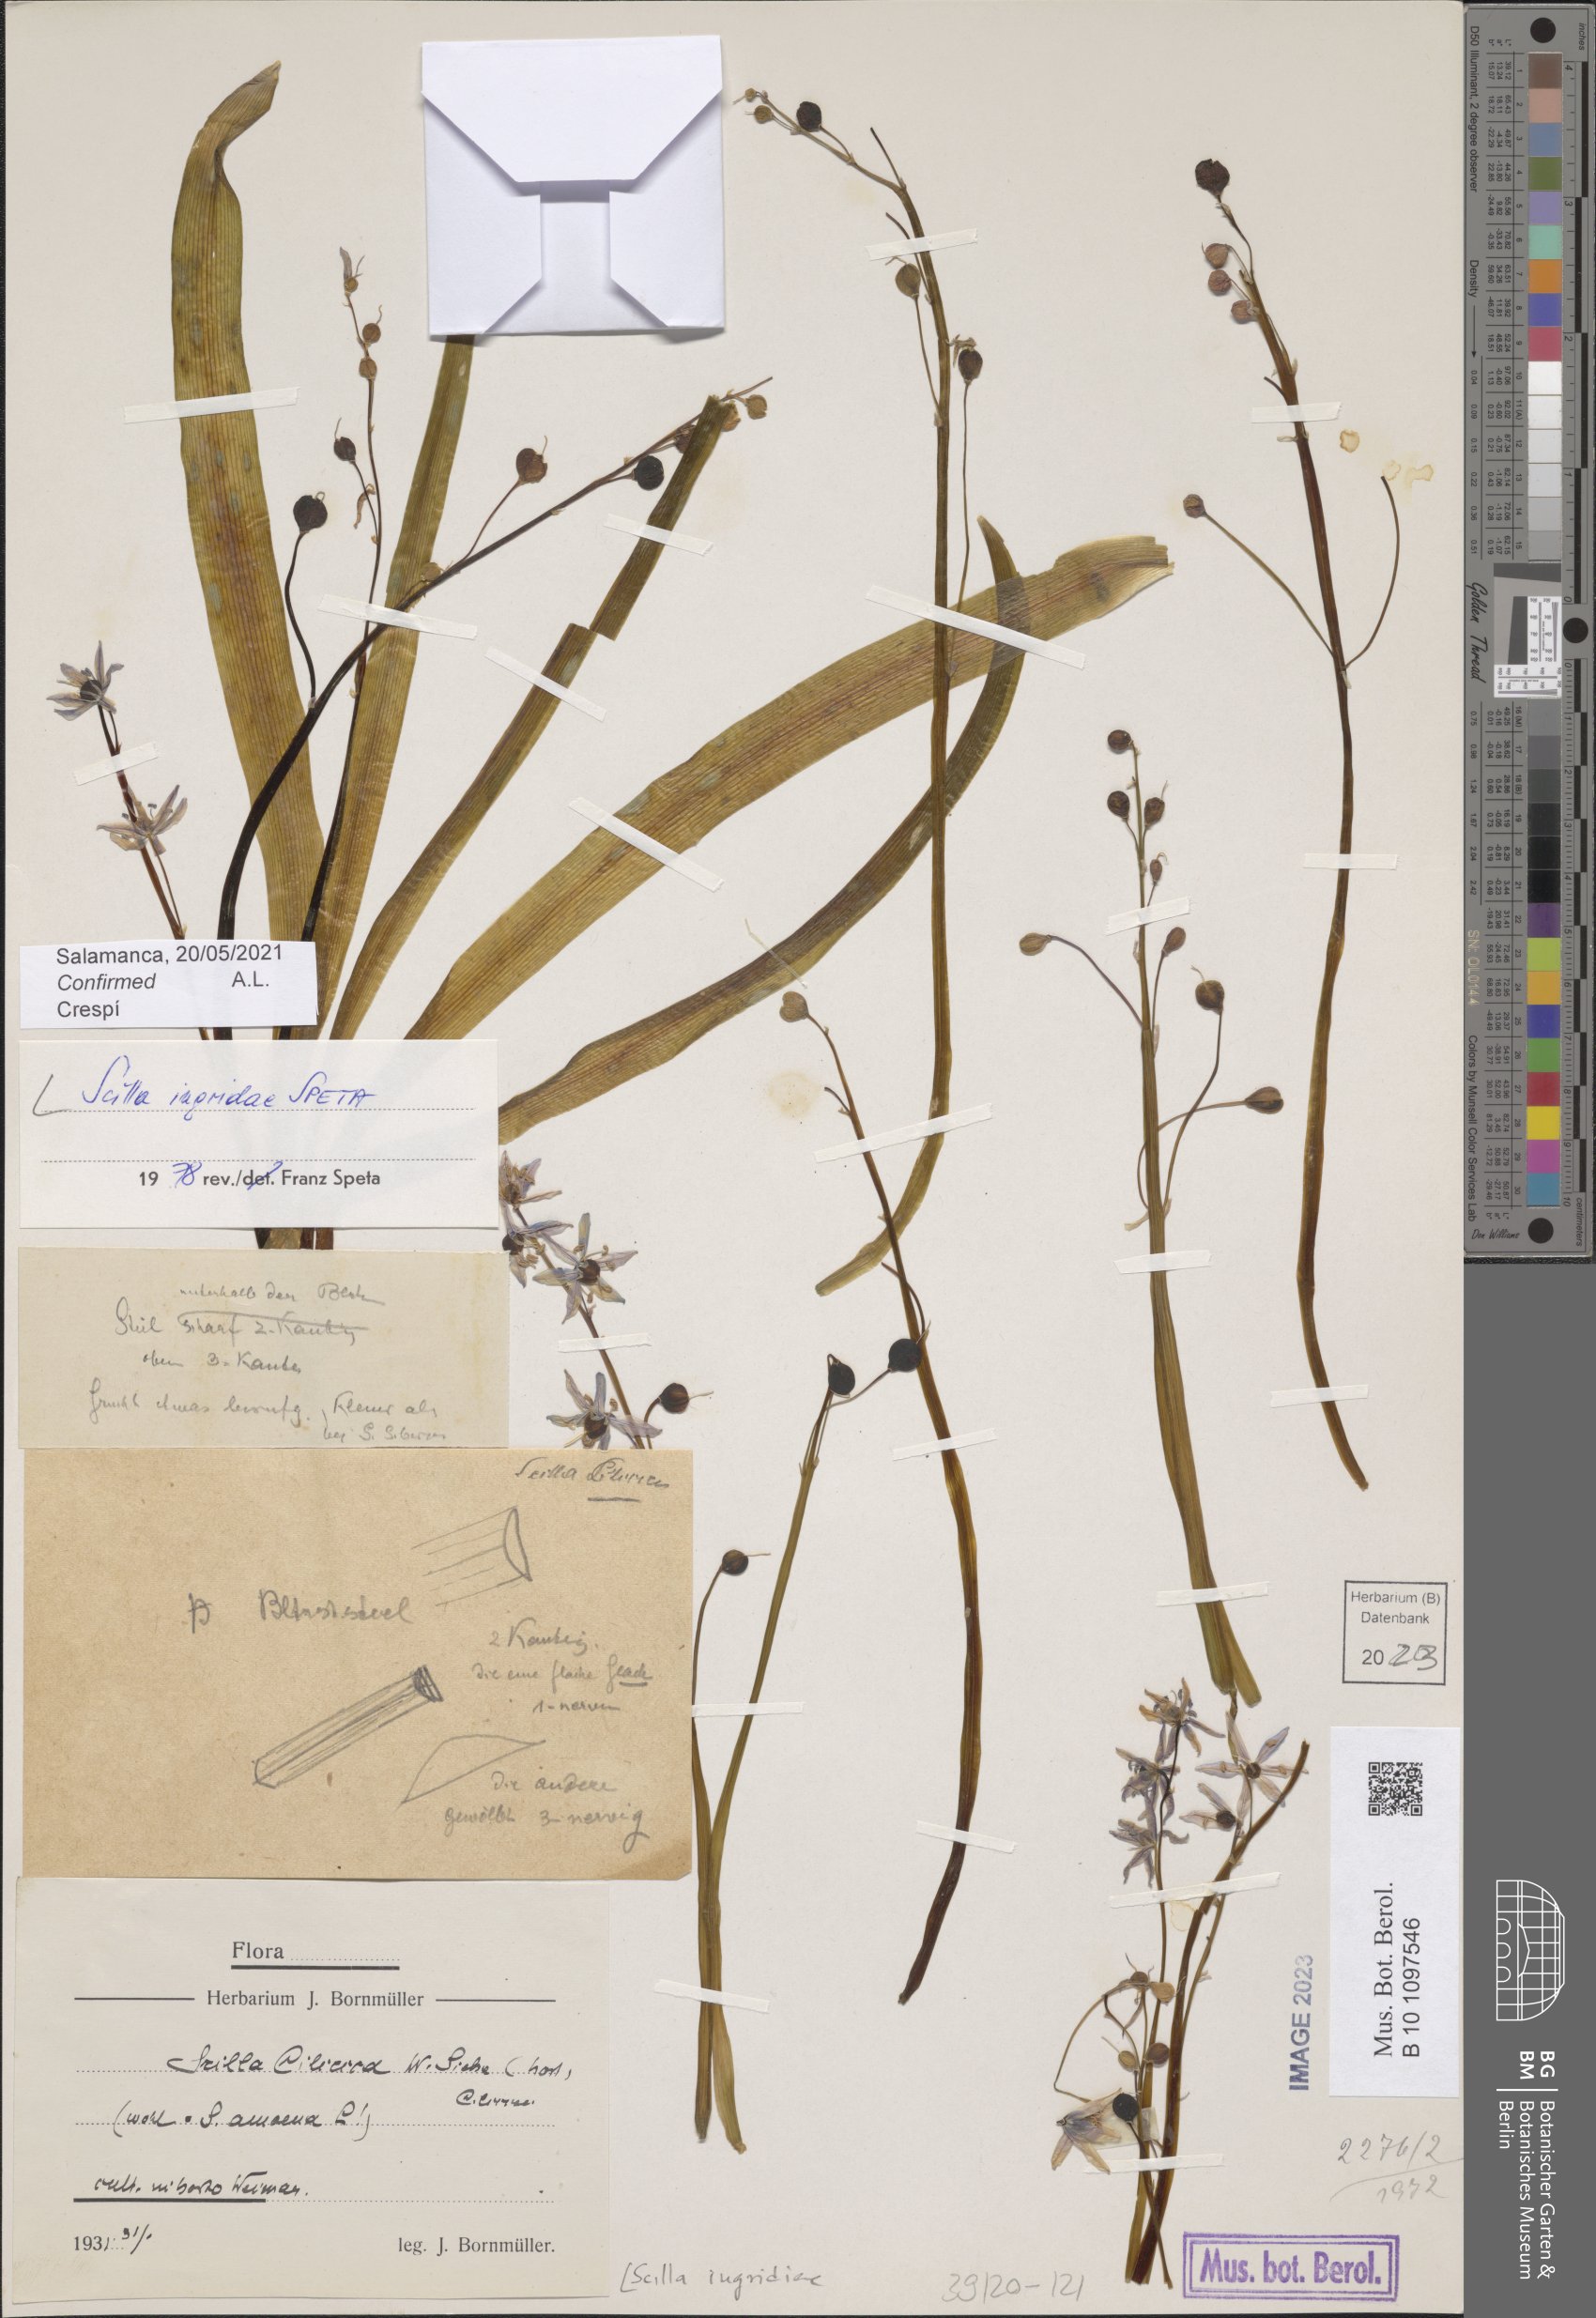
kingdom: Plantae
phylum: Tracheophyta
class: Liliopsida
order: Asparagales
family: Asparagaceae
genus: Scilla
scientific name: Scilla ingridiae
